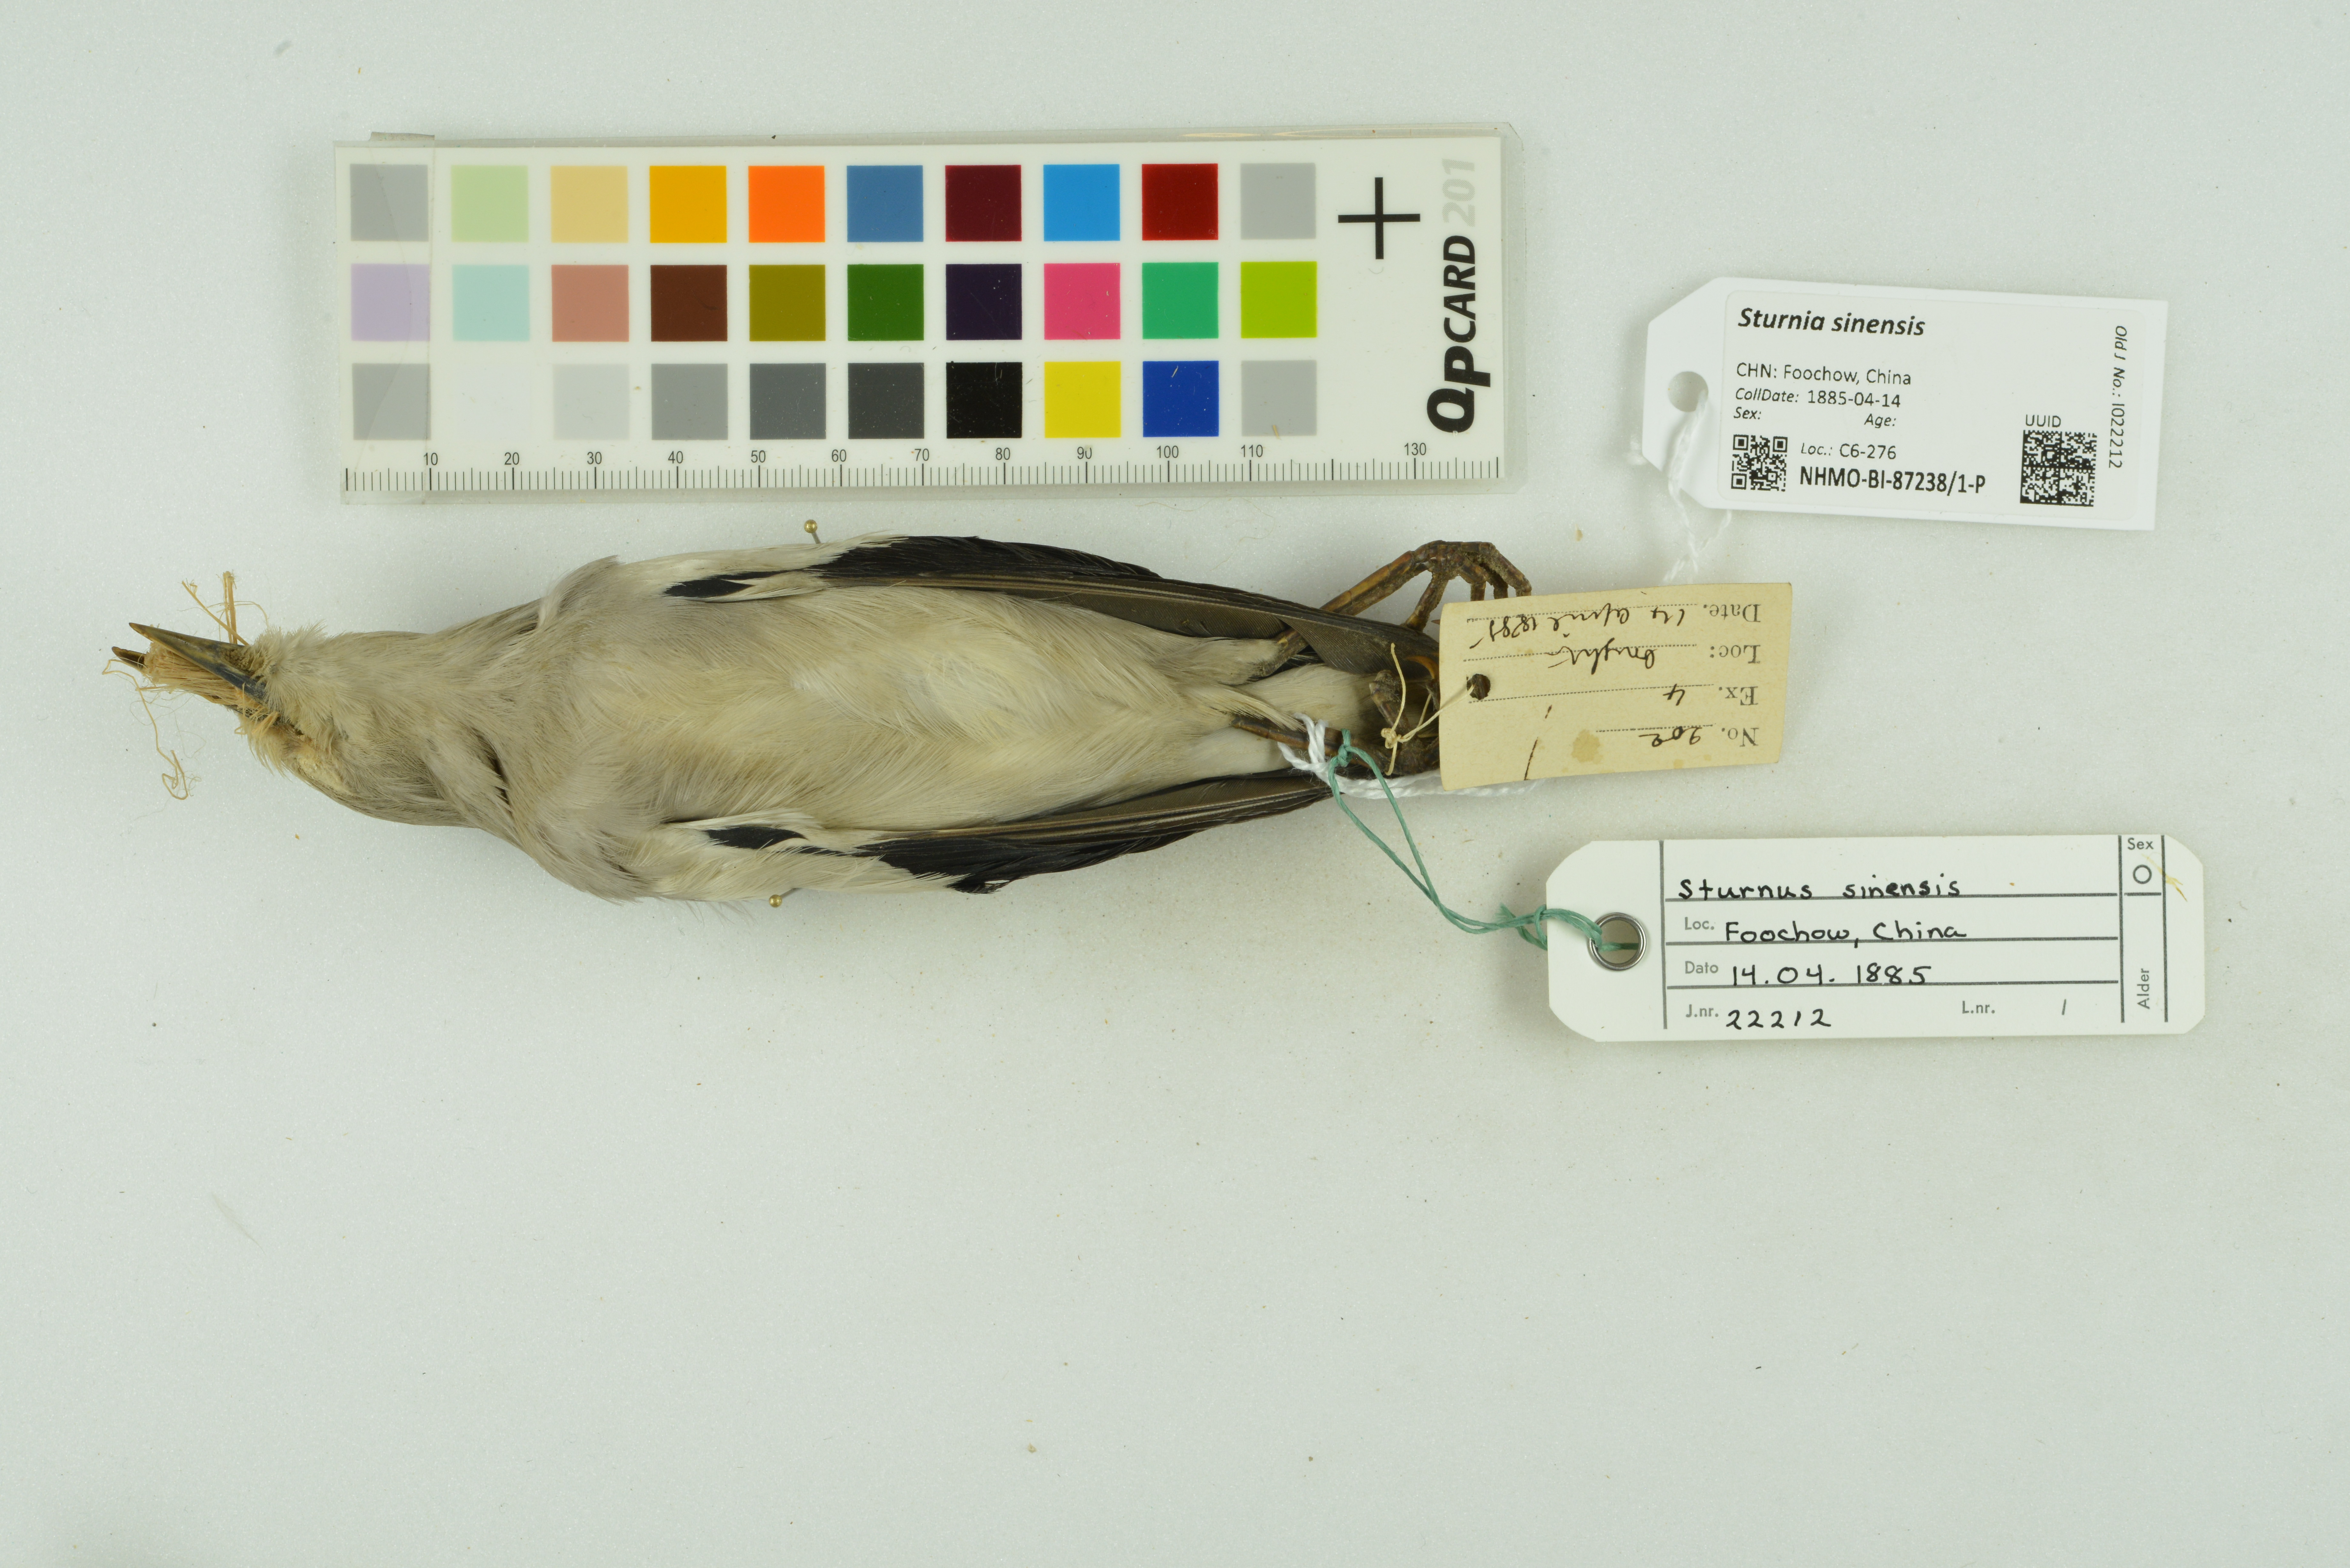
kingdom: Animalia
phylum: Chordata
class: Aves
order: Passeriformes
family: Sturnidae
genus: Sturnia
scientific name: Sturnia sinensis
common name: White-shouldered starling
